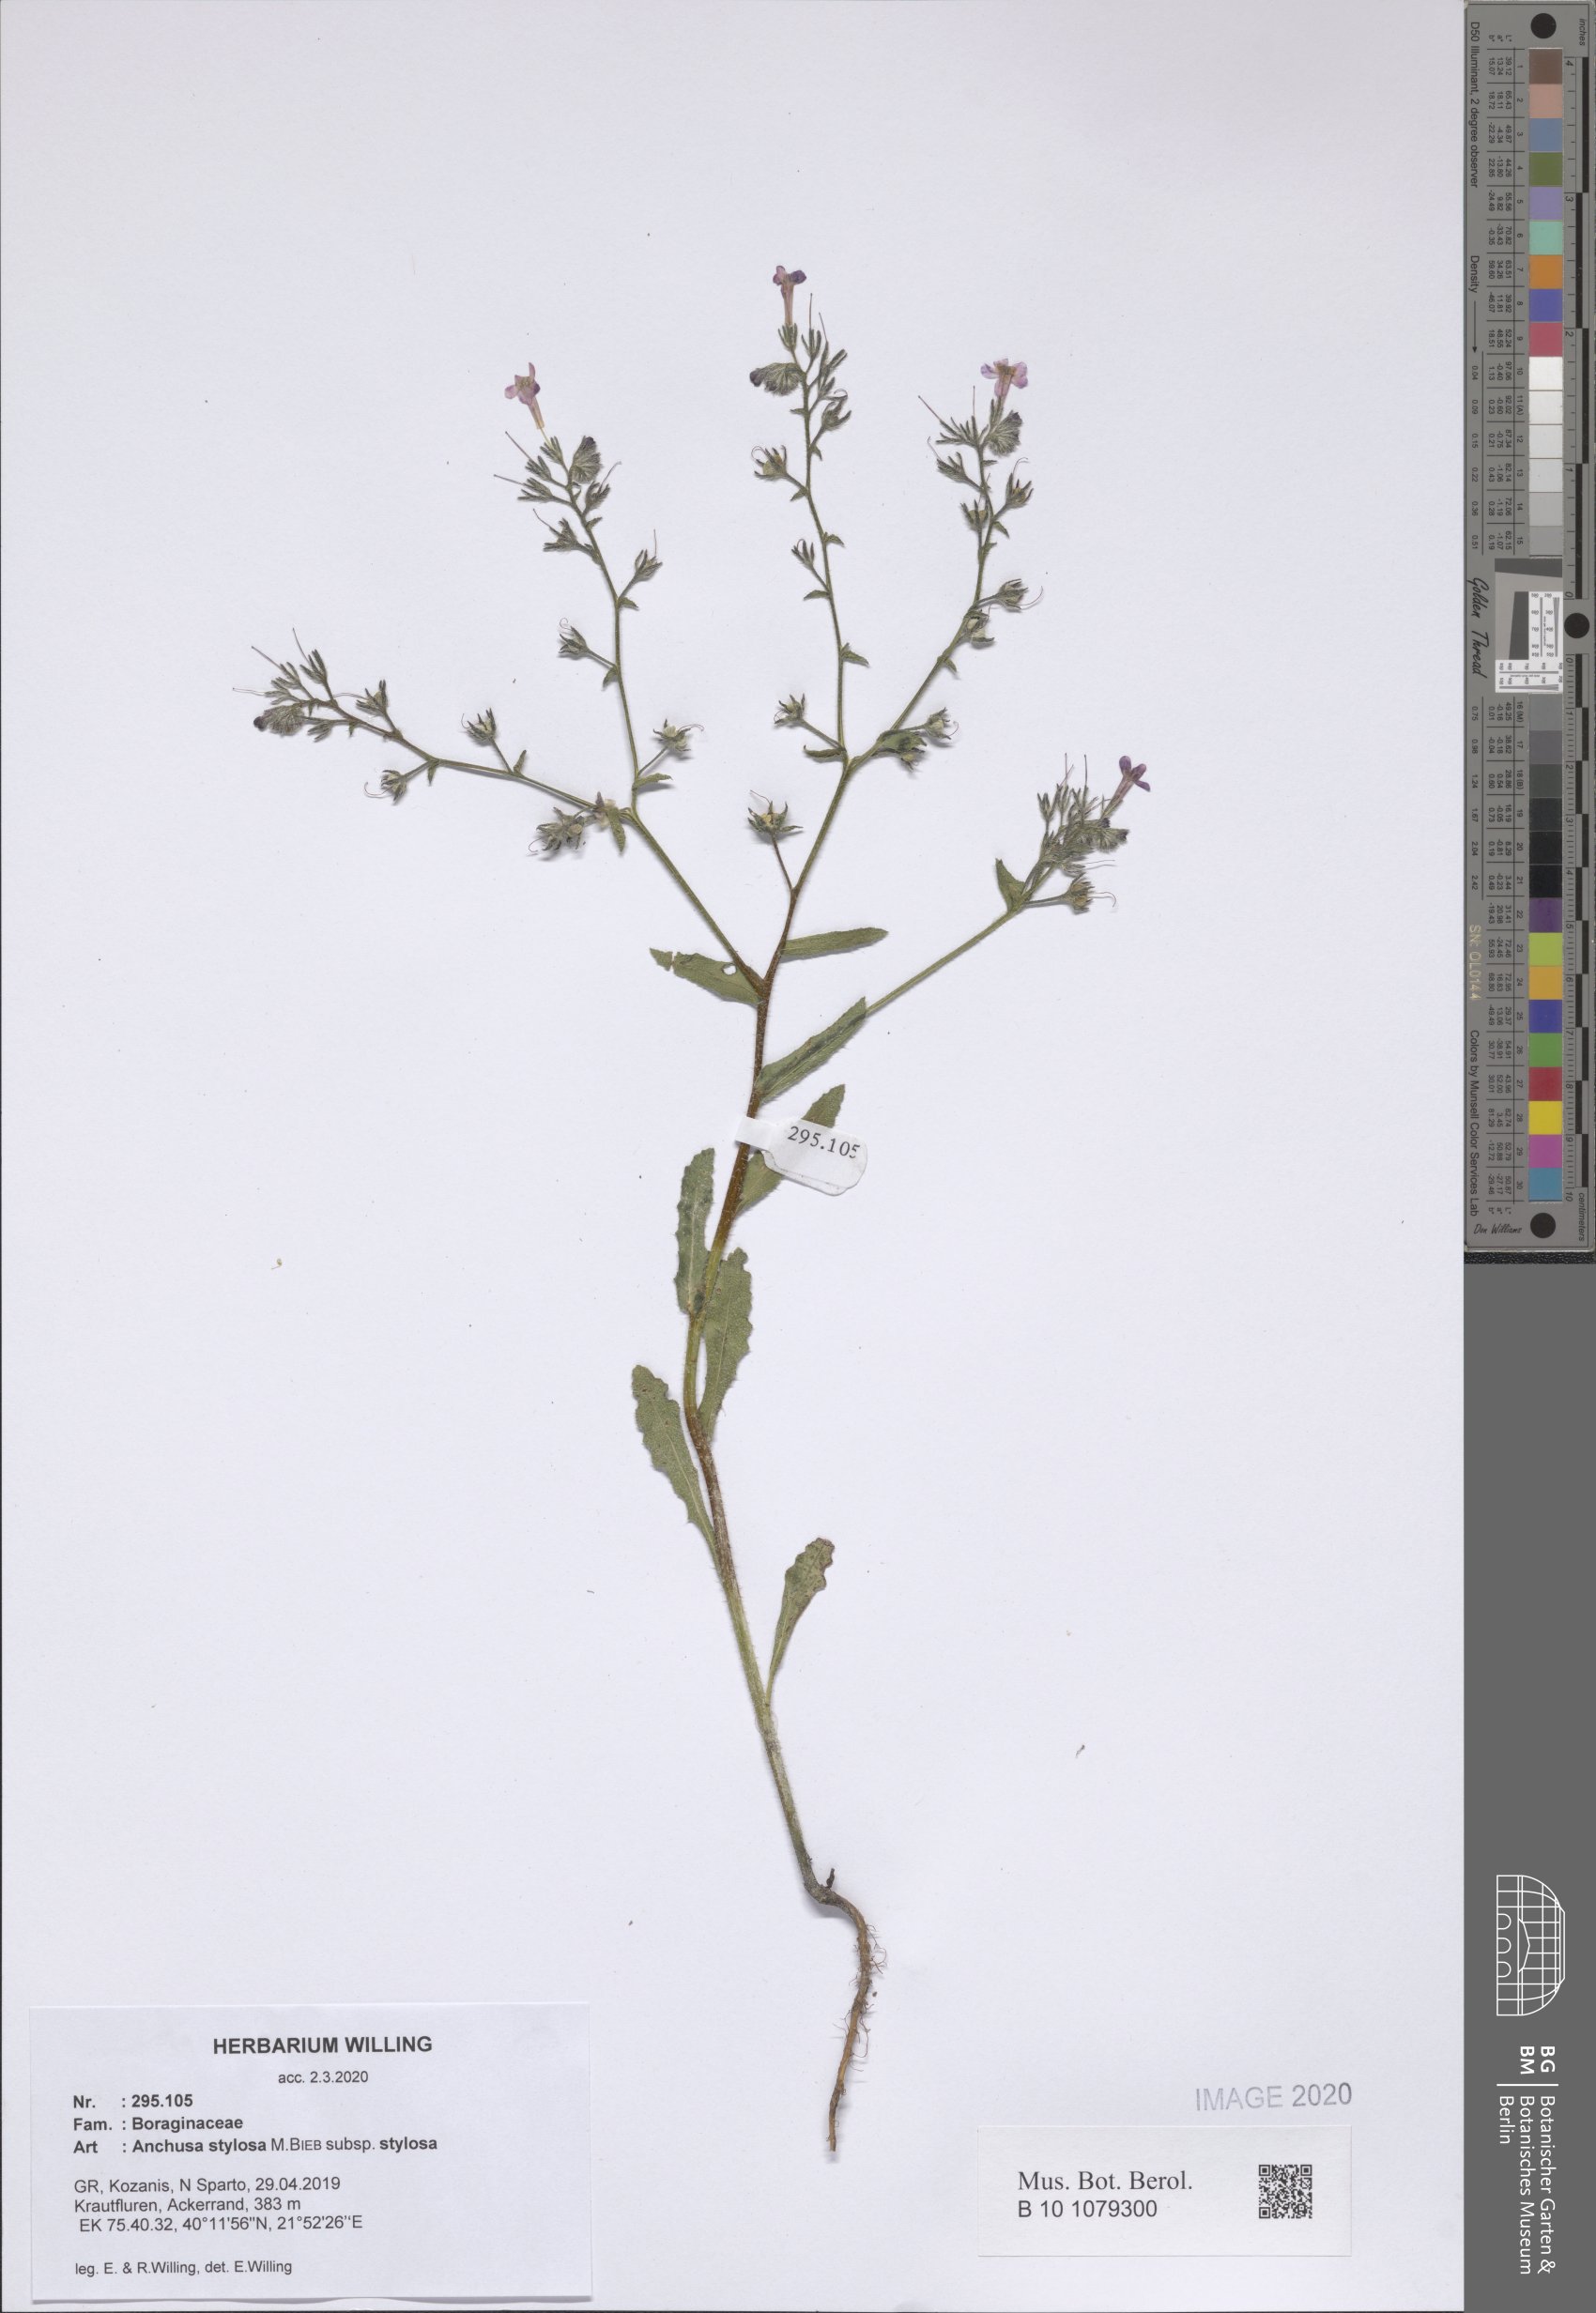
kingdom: Plantae
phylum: Tracheophyta
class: Magnoliopsida
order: Boraginales
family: Boraginaceae
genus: Anchusa
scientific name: Anchusa stylosa
